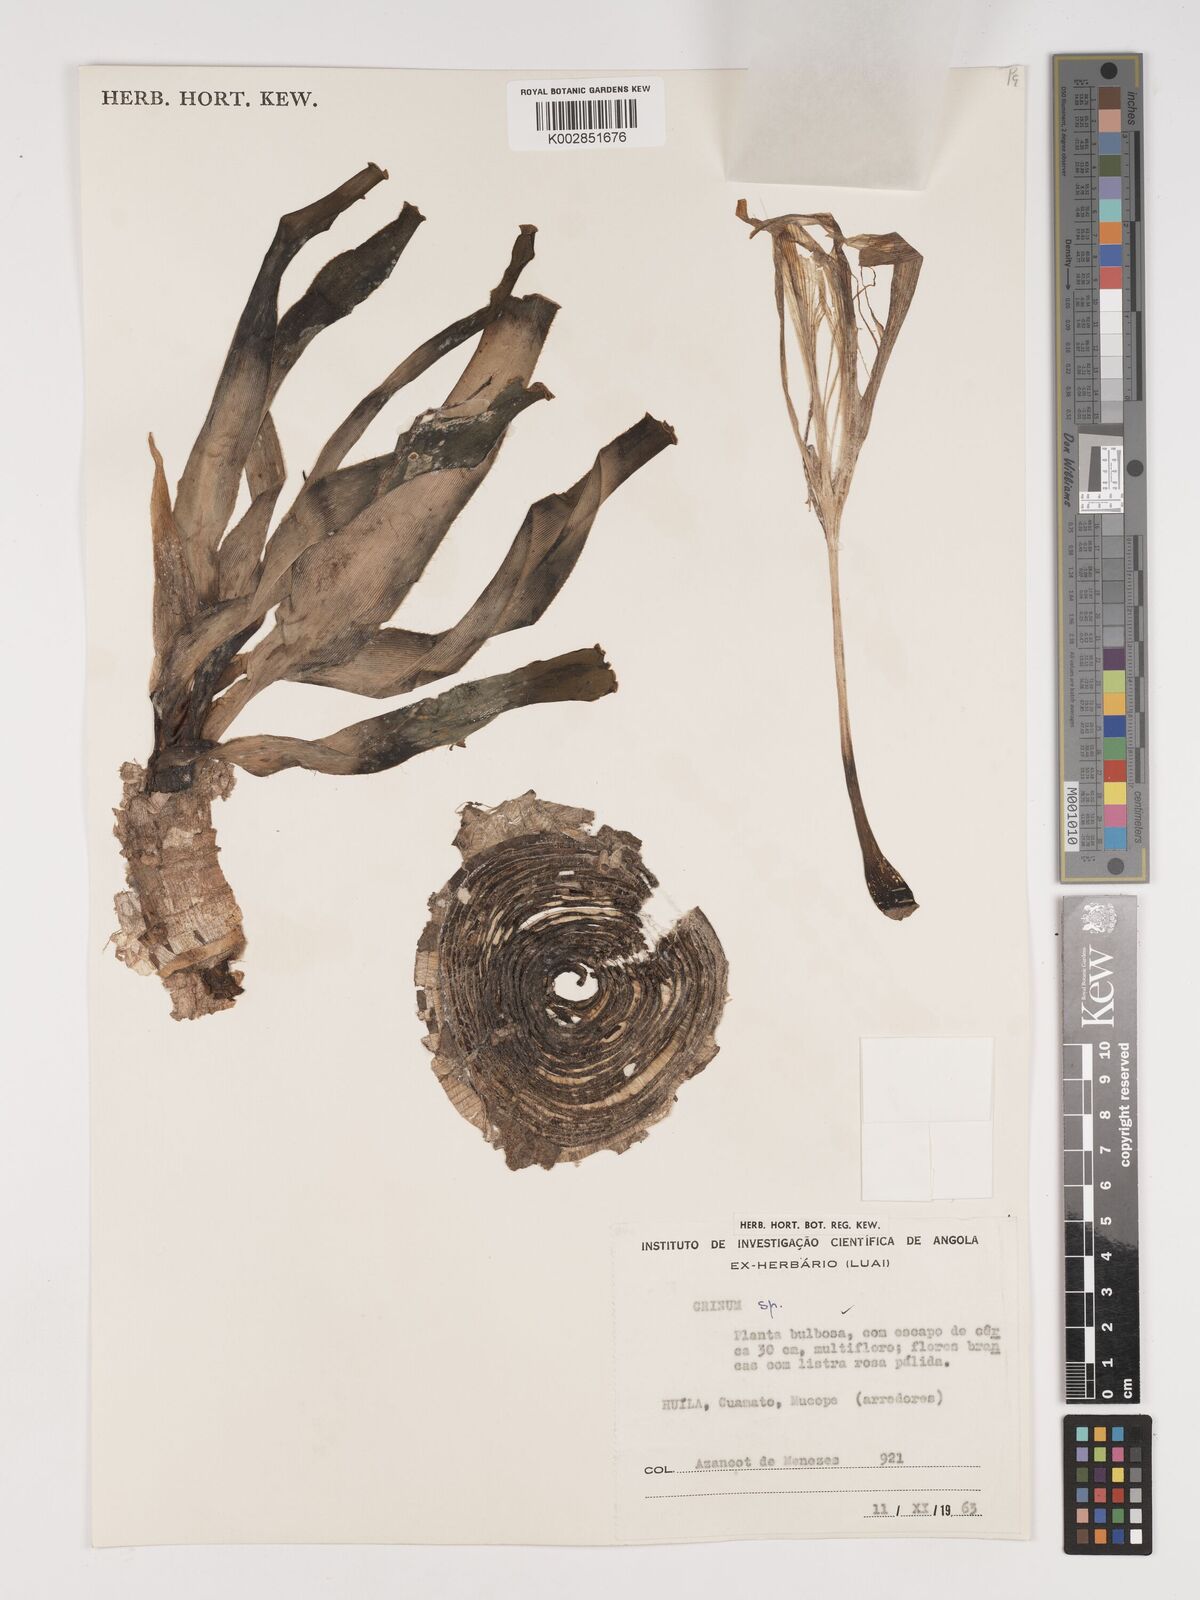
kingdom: Plantae
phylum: Tracheophyta
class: Liliopsida
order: Asparagales
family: Amaryllidaceae
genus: Crinum
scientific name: Crinum
